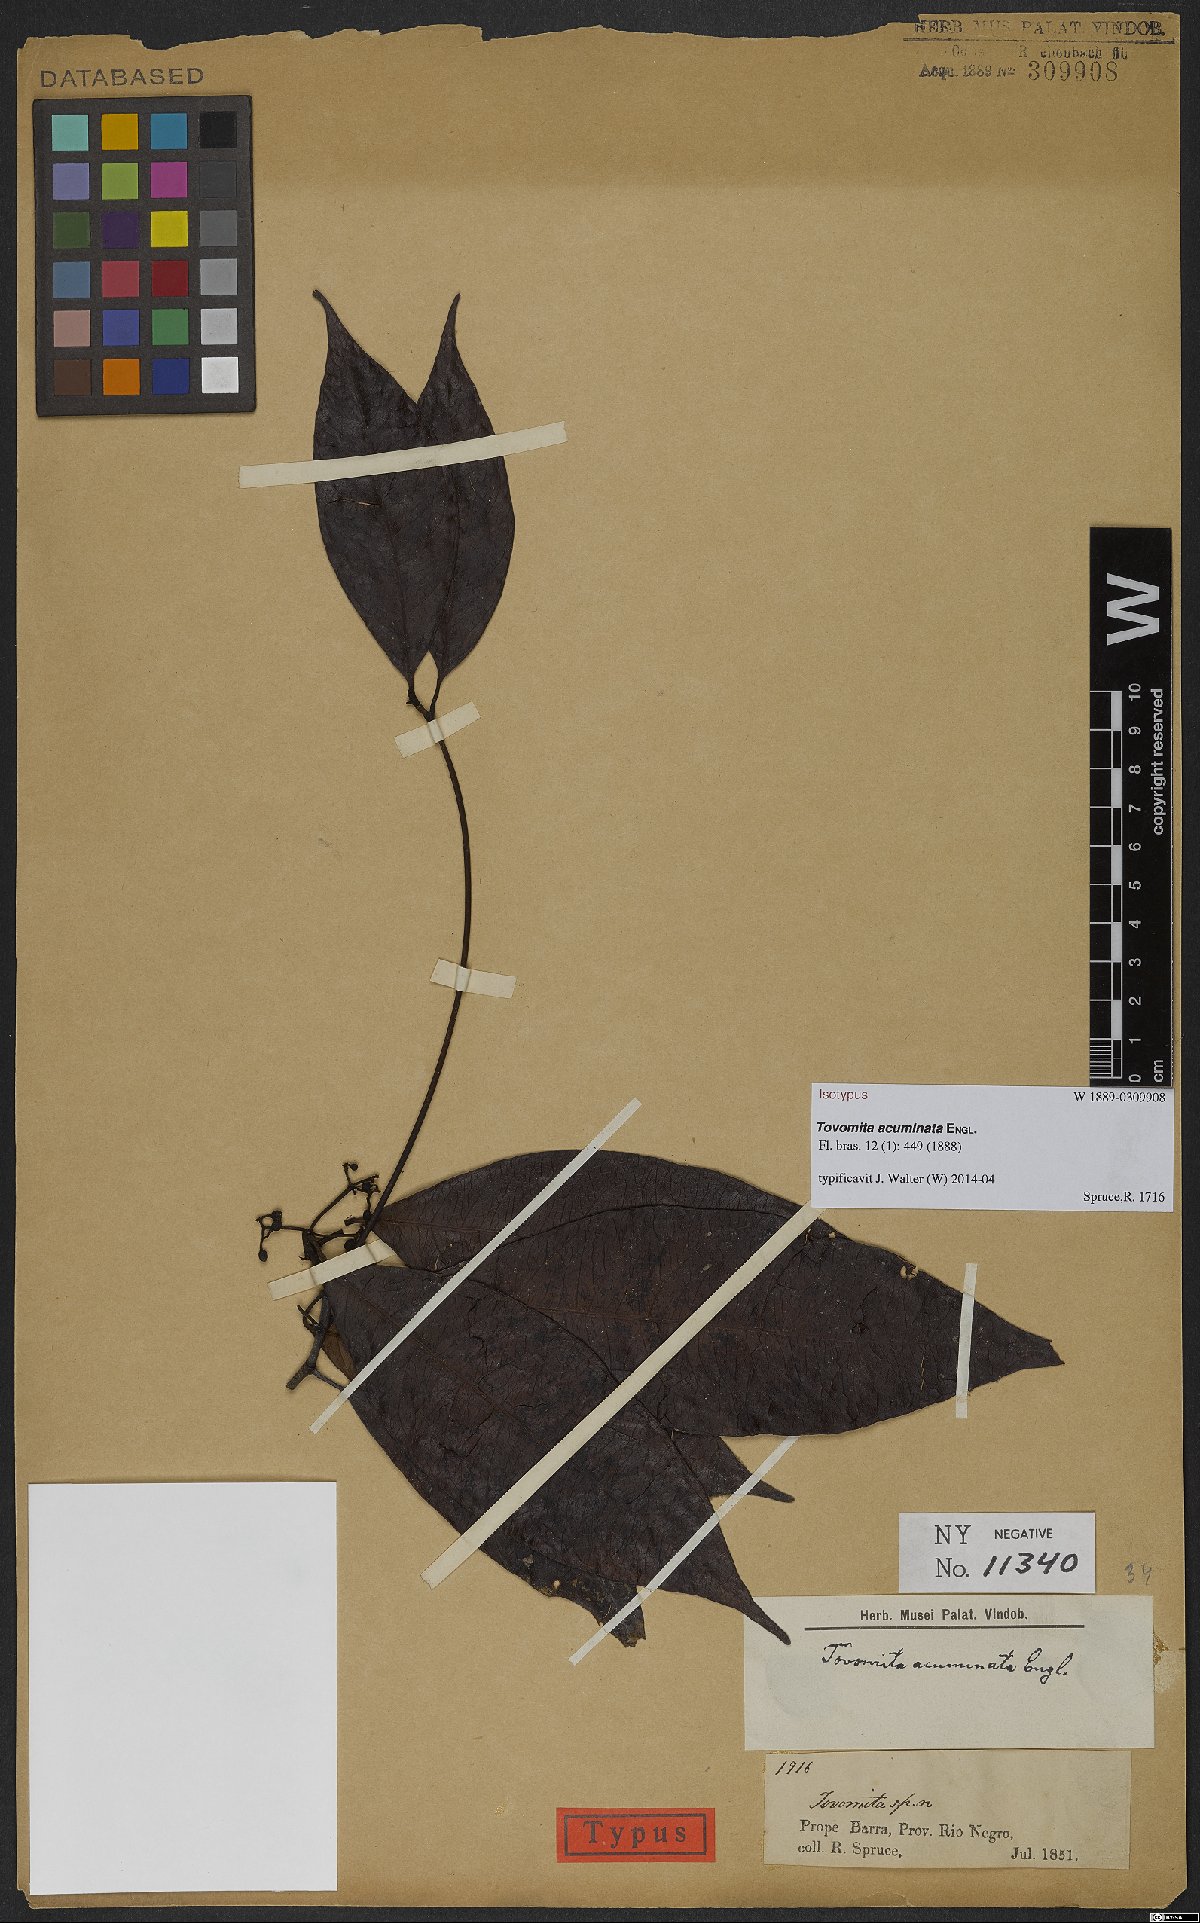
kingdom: Plantae
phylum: Tracheophyta
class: Magnoliopsida
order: Malpighiales
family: Clusiaceae
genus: Tovomita
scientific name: Tovomita gracilipes
